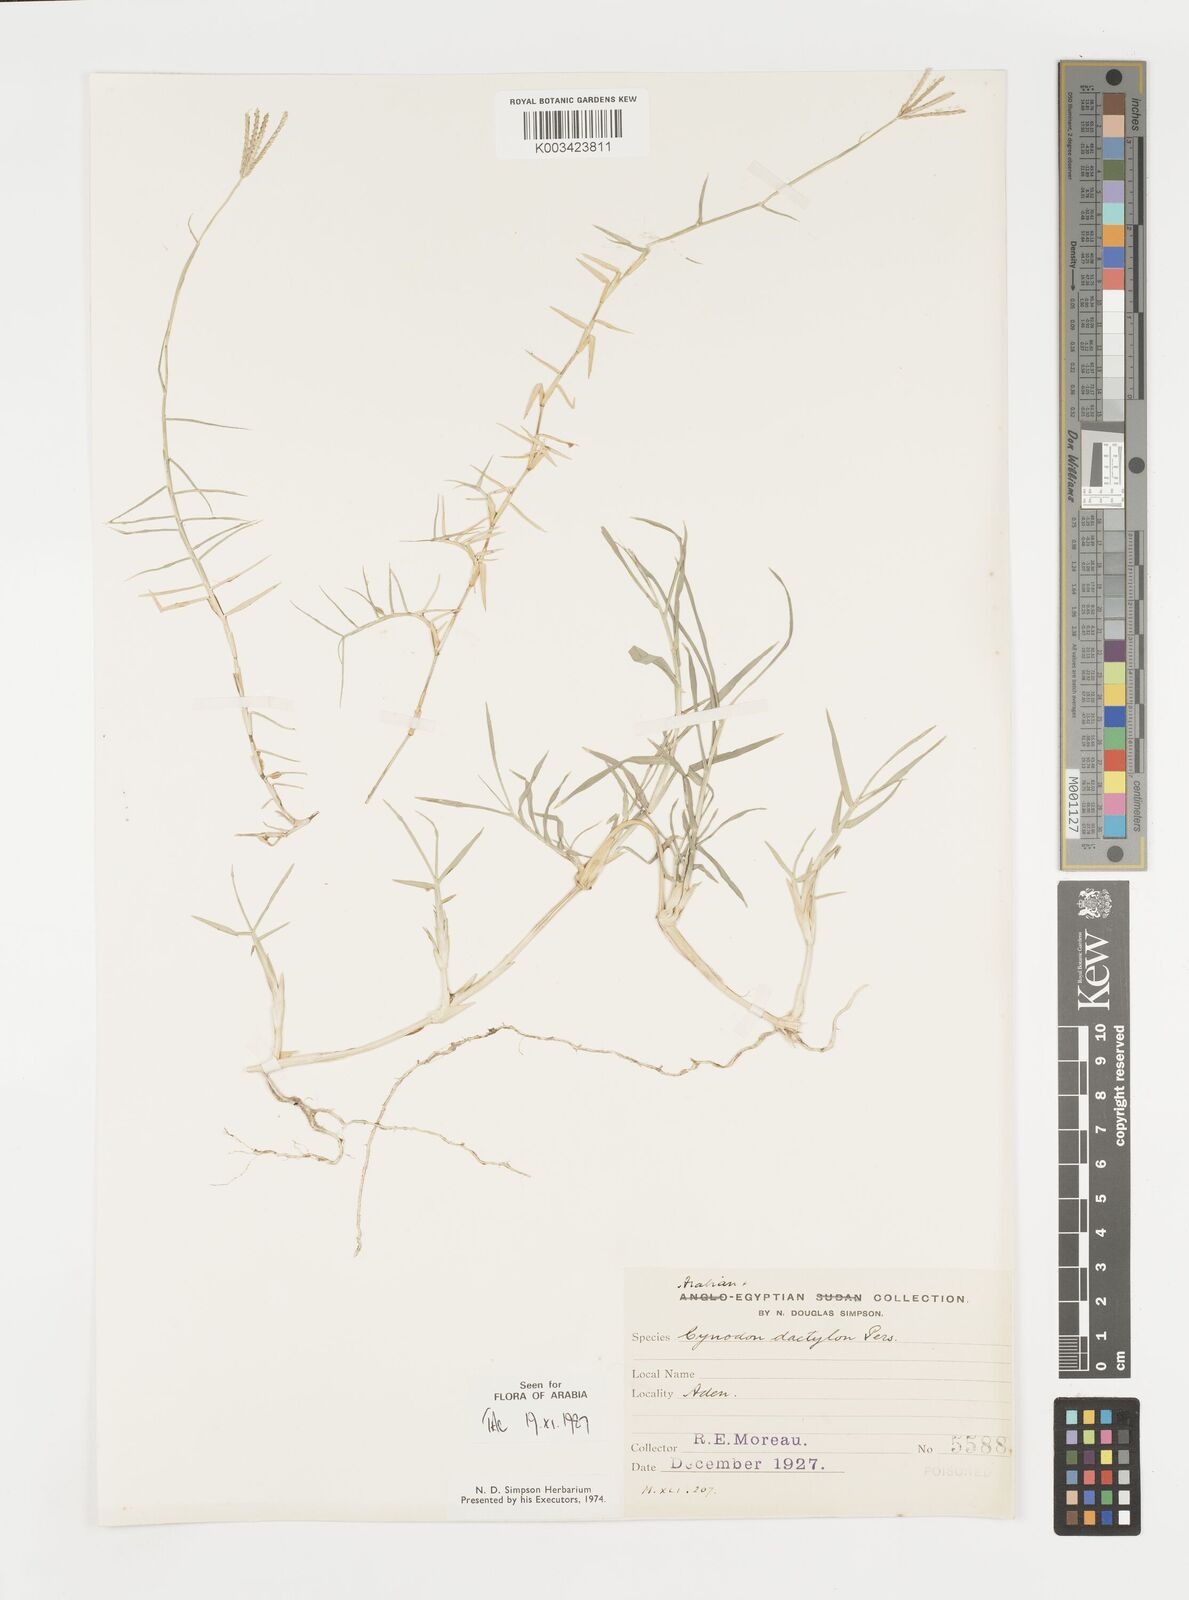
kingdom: Plantae
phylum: Tracheophyta
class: Liliopsida
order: Poales
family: Poaceae
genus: Cynodon
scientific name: Cynodon dactylon
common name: Bermuda grass
